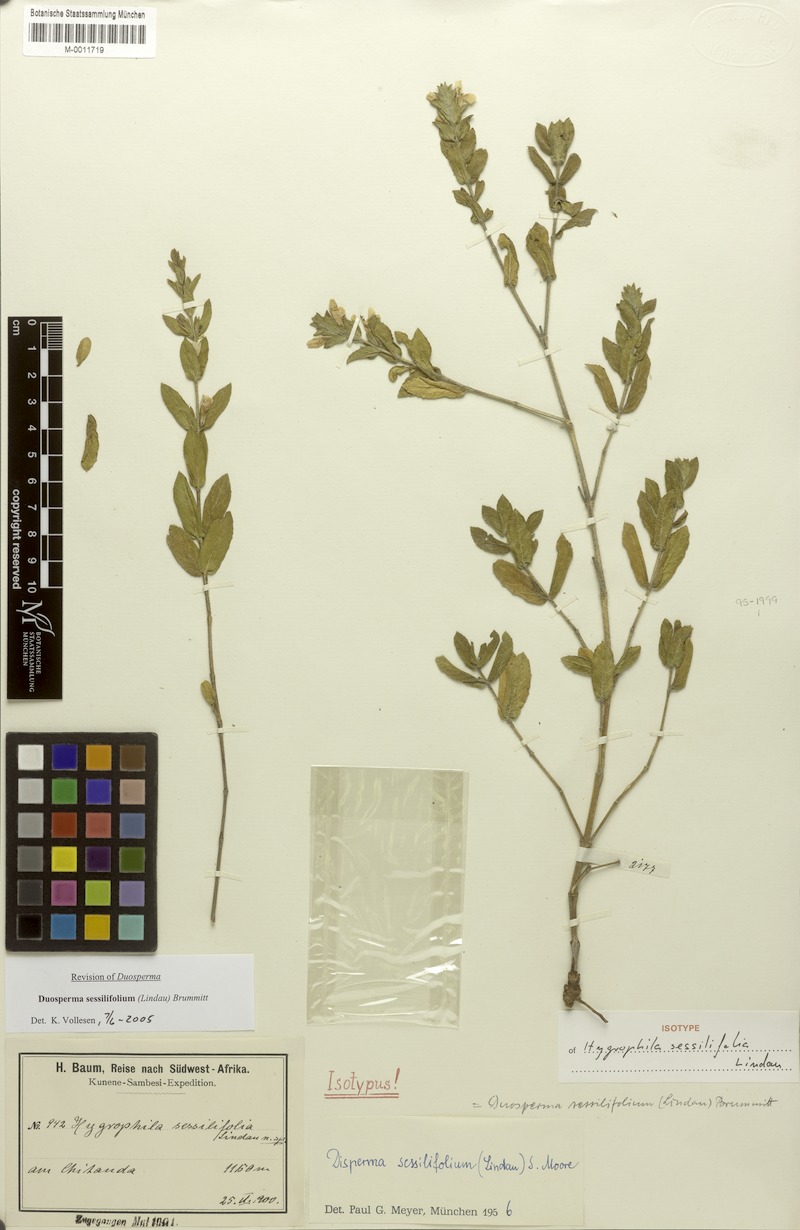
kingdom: Plantae
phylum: Tracheophyta
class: Magnoliopsida
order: Lamiales
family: Acanthaceae
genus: Duosperma
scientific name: Duosperma sessilifolium
